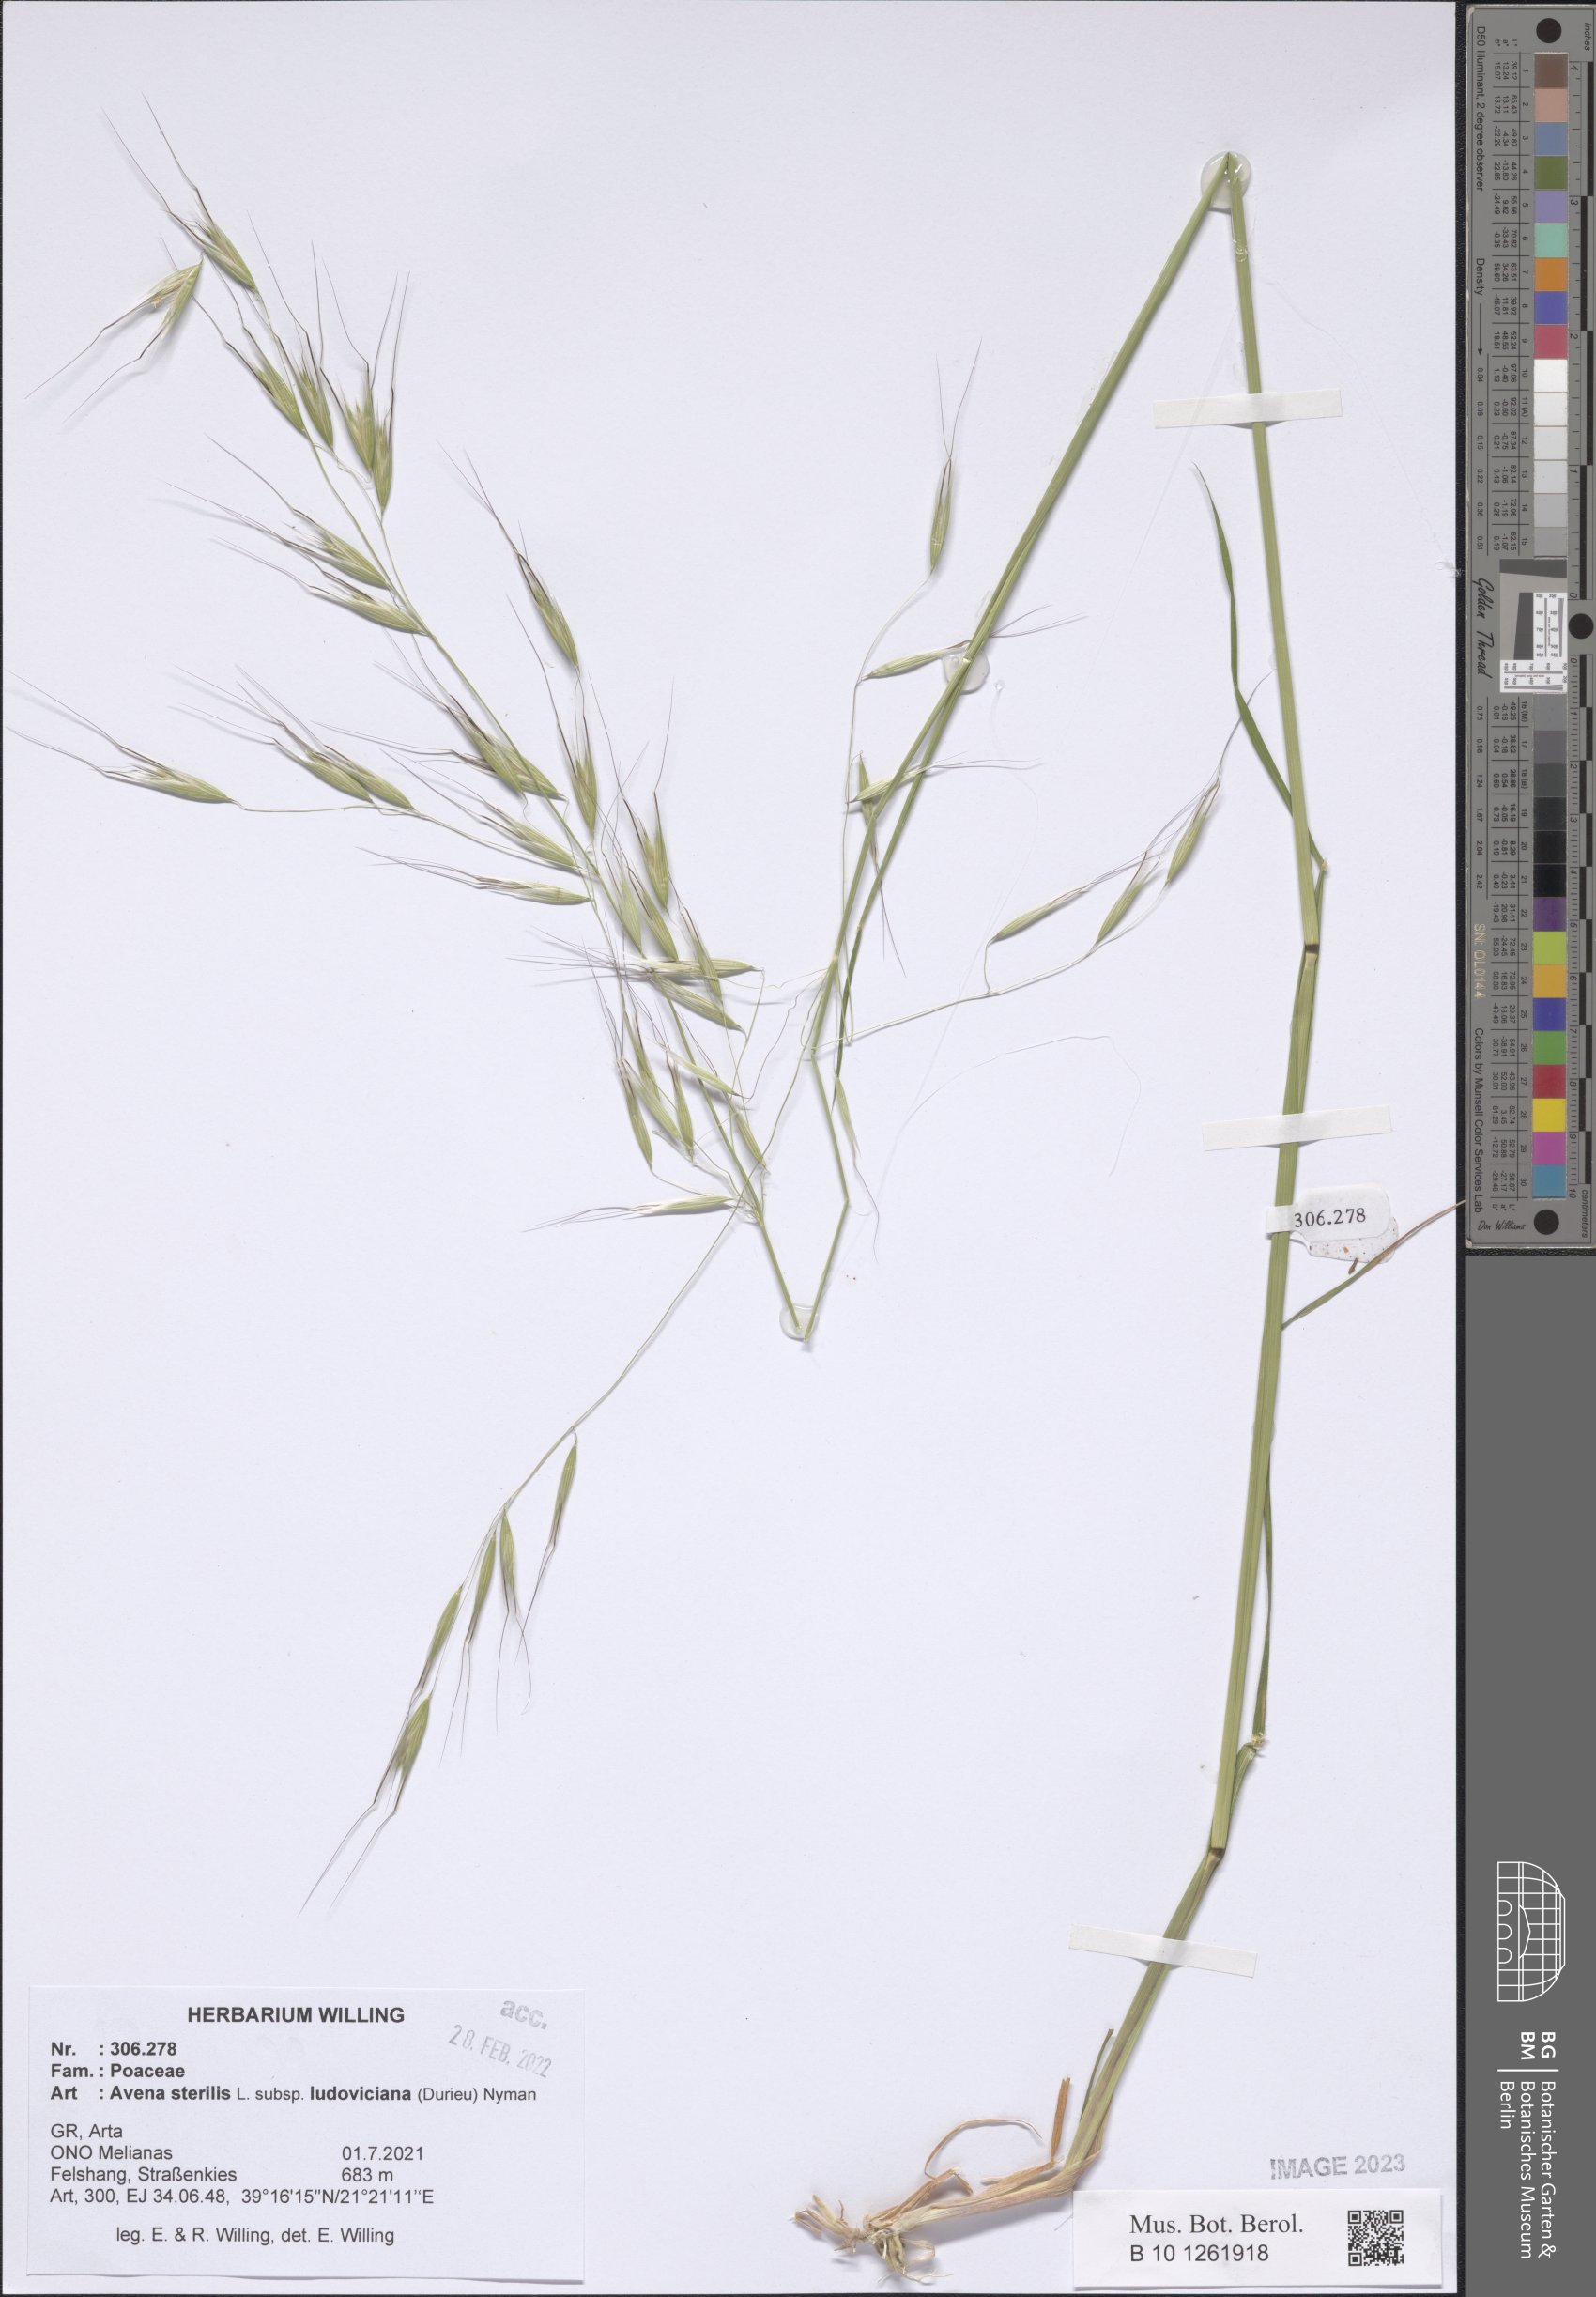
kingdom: Plantae
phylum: Tracheophyta
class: Liliopsida
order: Poales
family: Poaceae
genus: Avena
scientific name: Avena sterilis
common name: Animated oat
